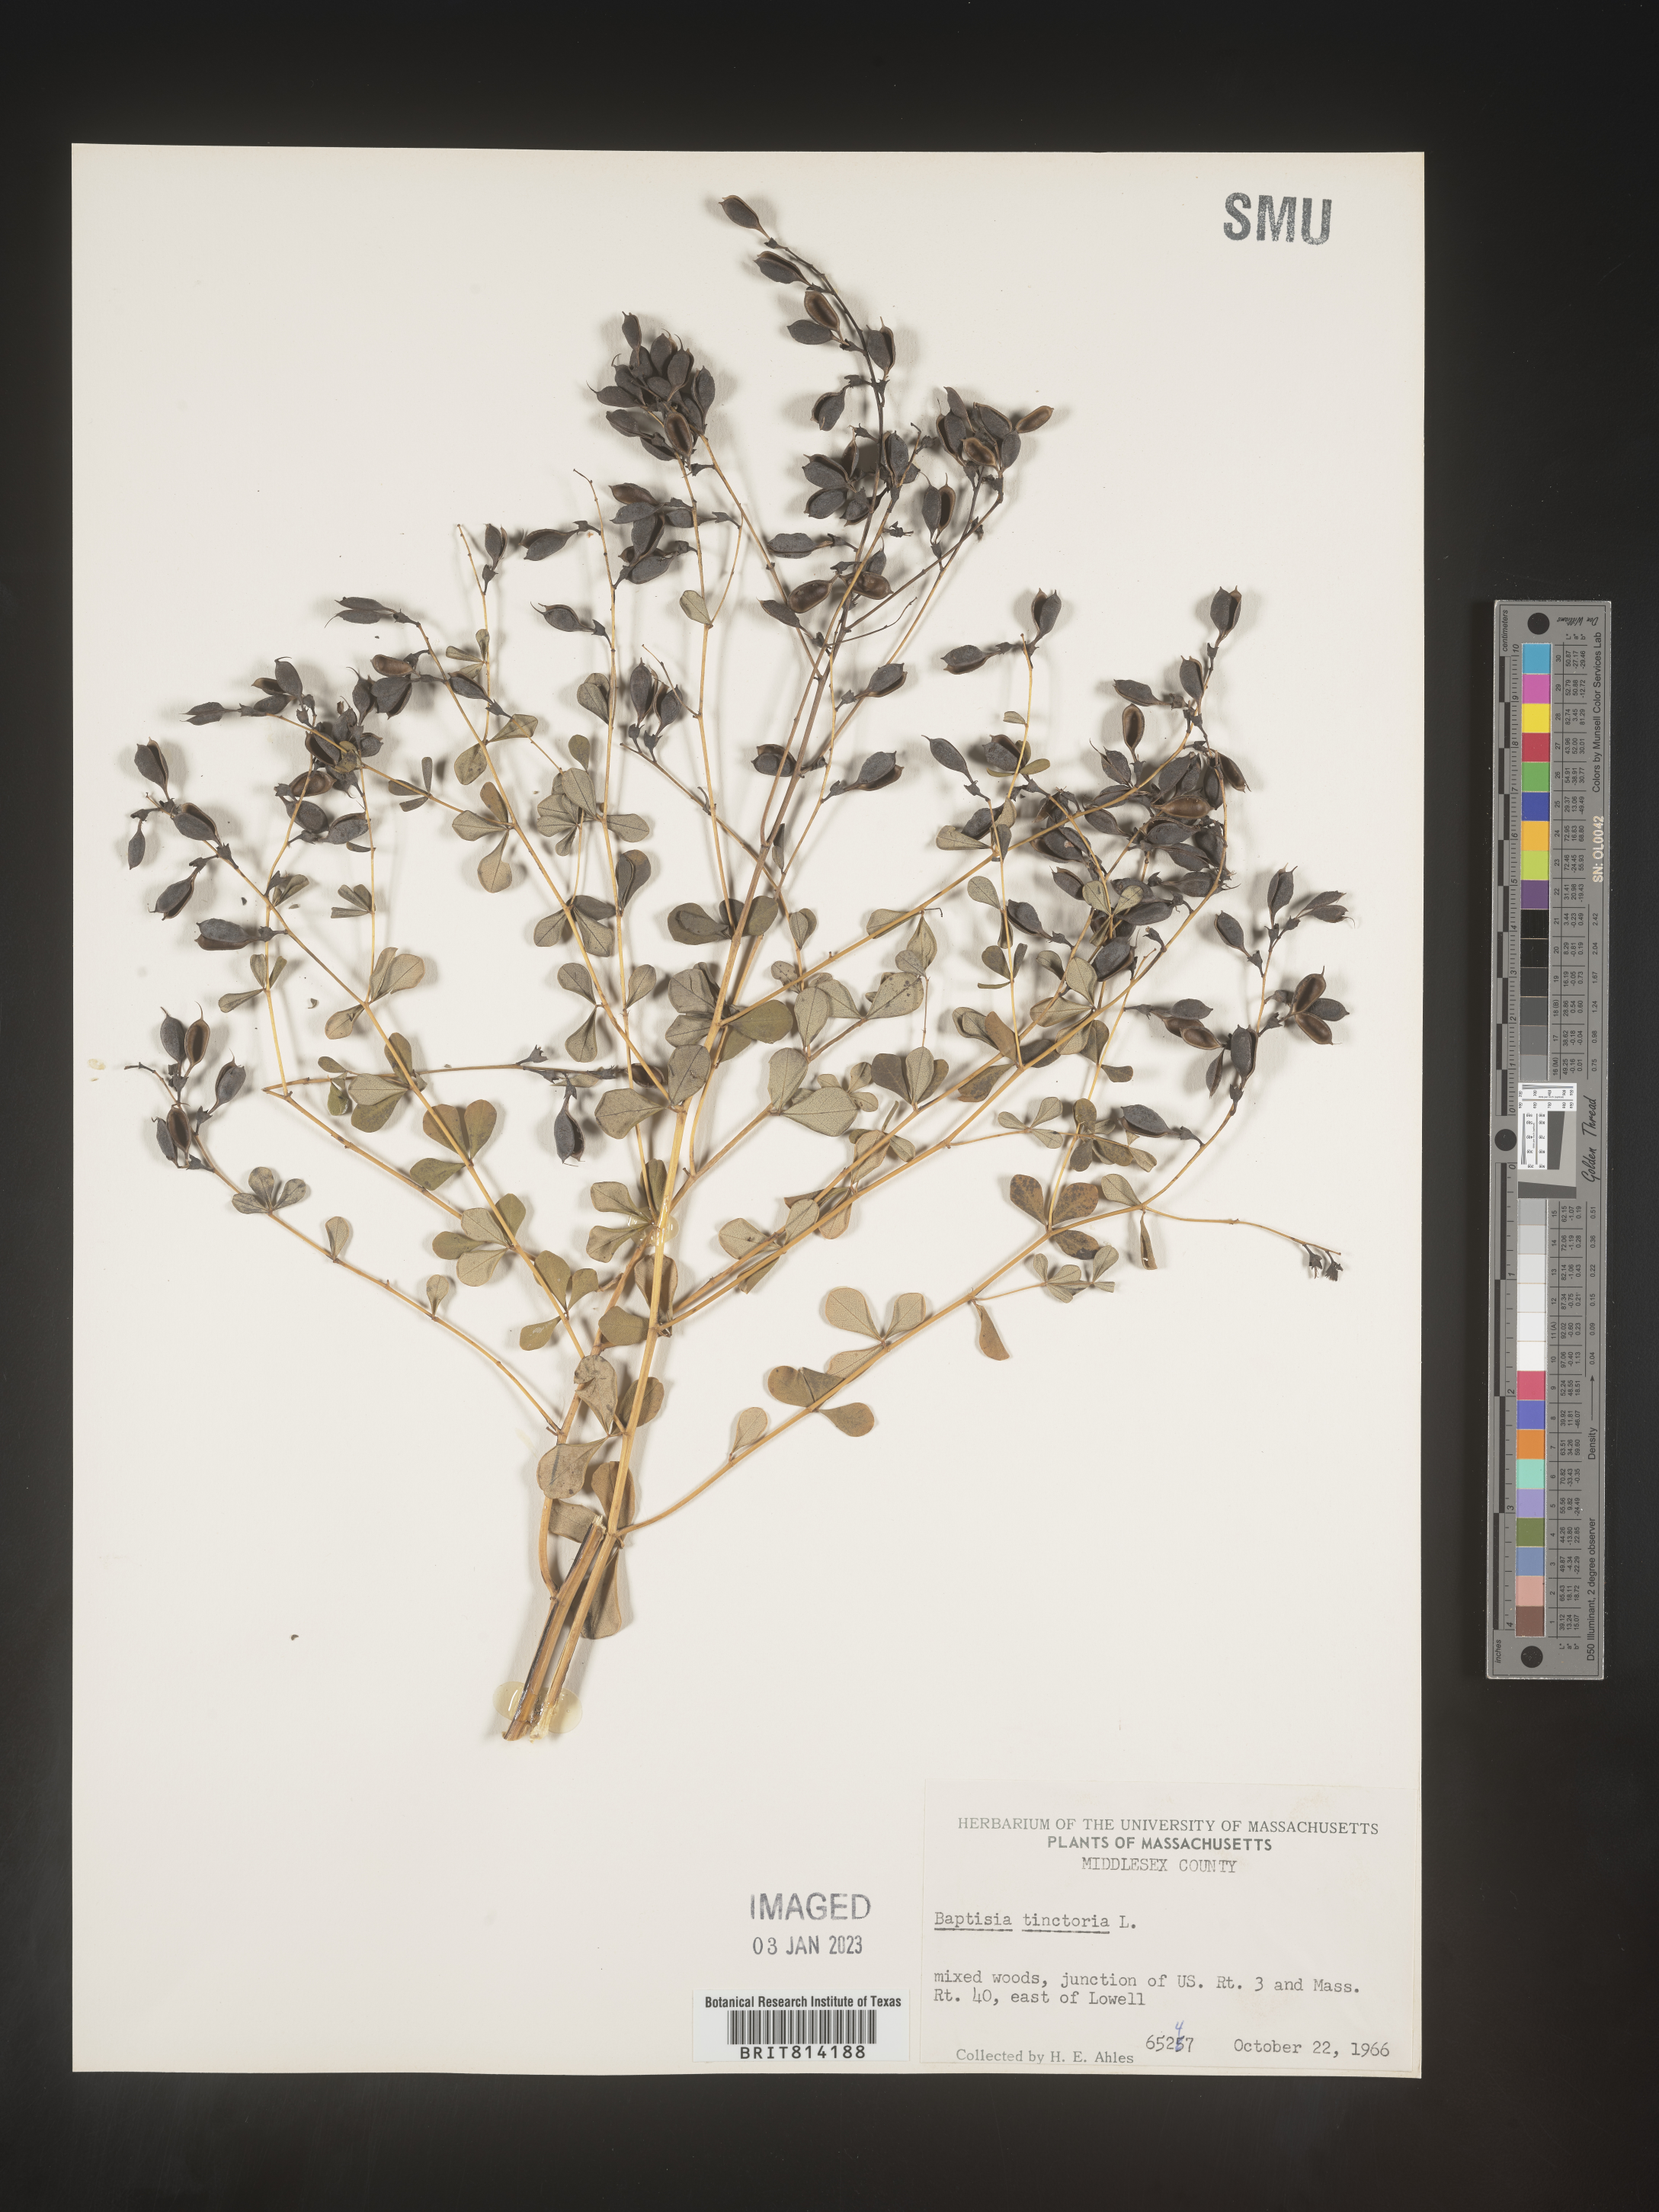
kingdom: Plantae
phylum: Tracheophyta
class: Magnoliopsida
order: Fabales
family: Fabaceae
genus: Baptisia
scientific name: Baptisia tinctoria
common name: Wild indigo
